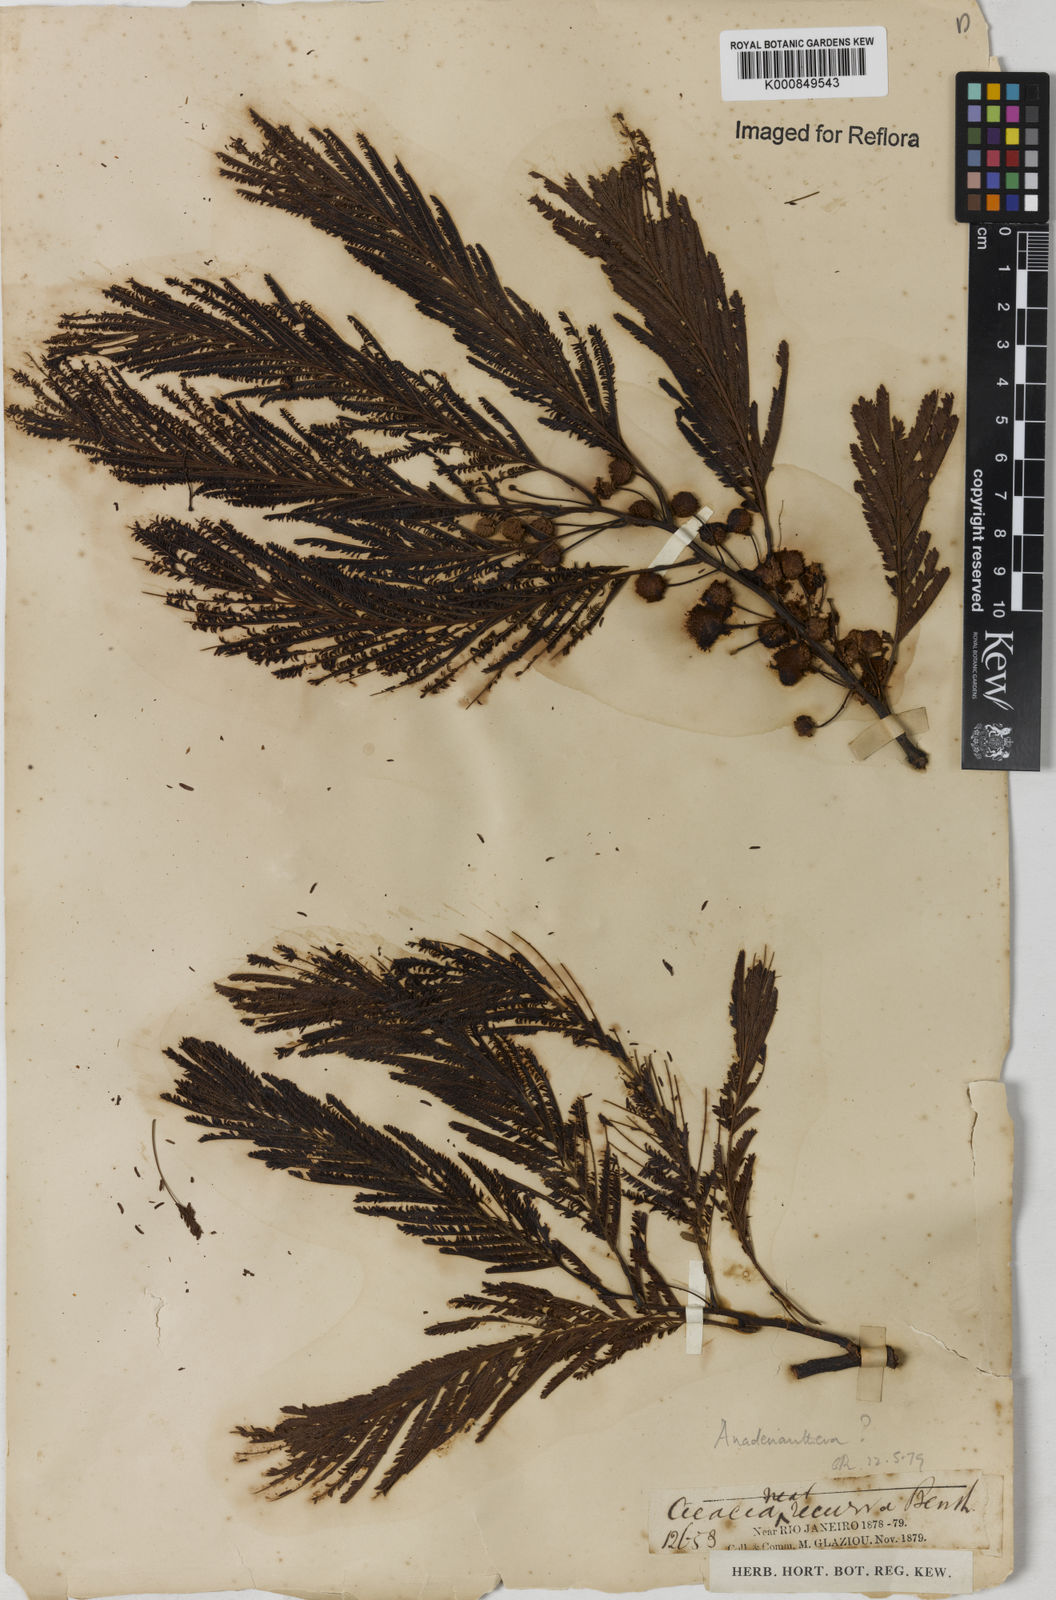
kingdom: Plantae
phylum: Tracheophyta
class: Magnoliopsida
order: Fabales
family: Fabaceae
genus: Anadenanthera
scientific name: Anadenanthera
